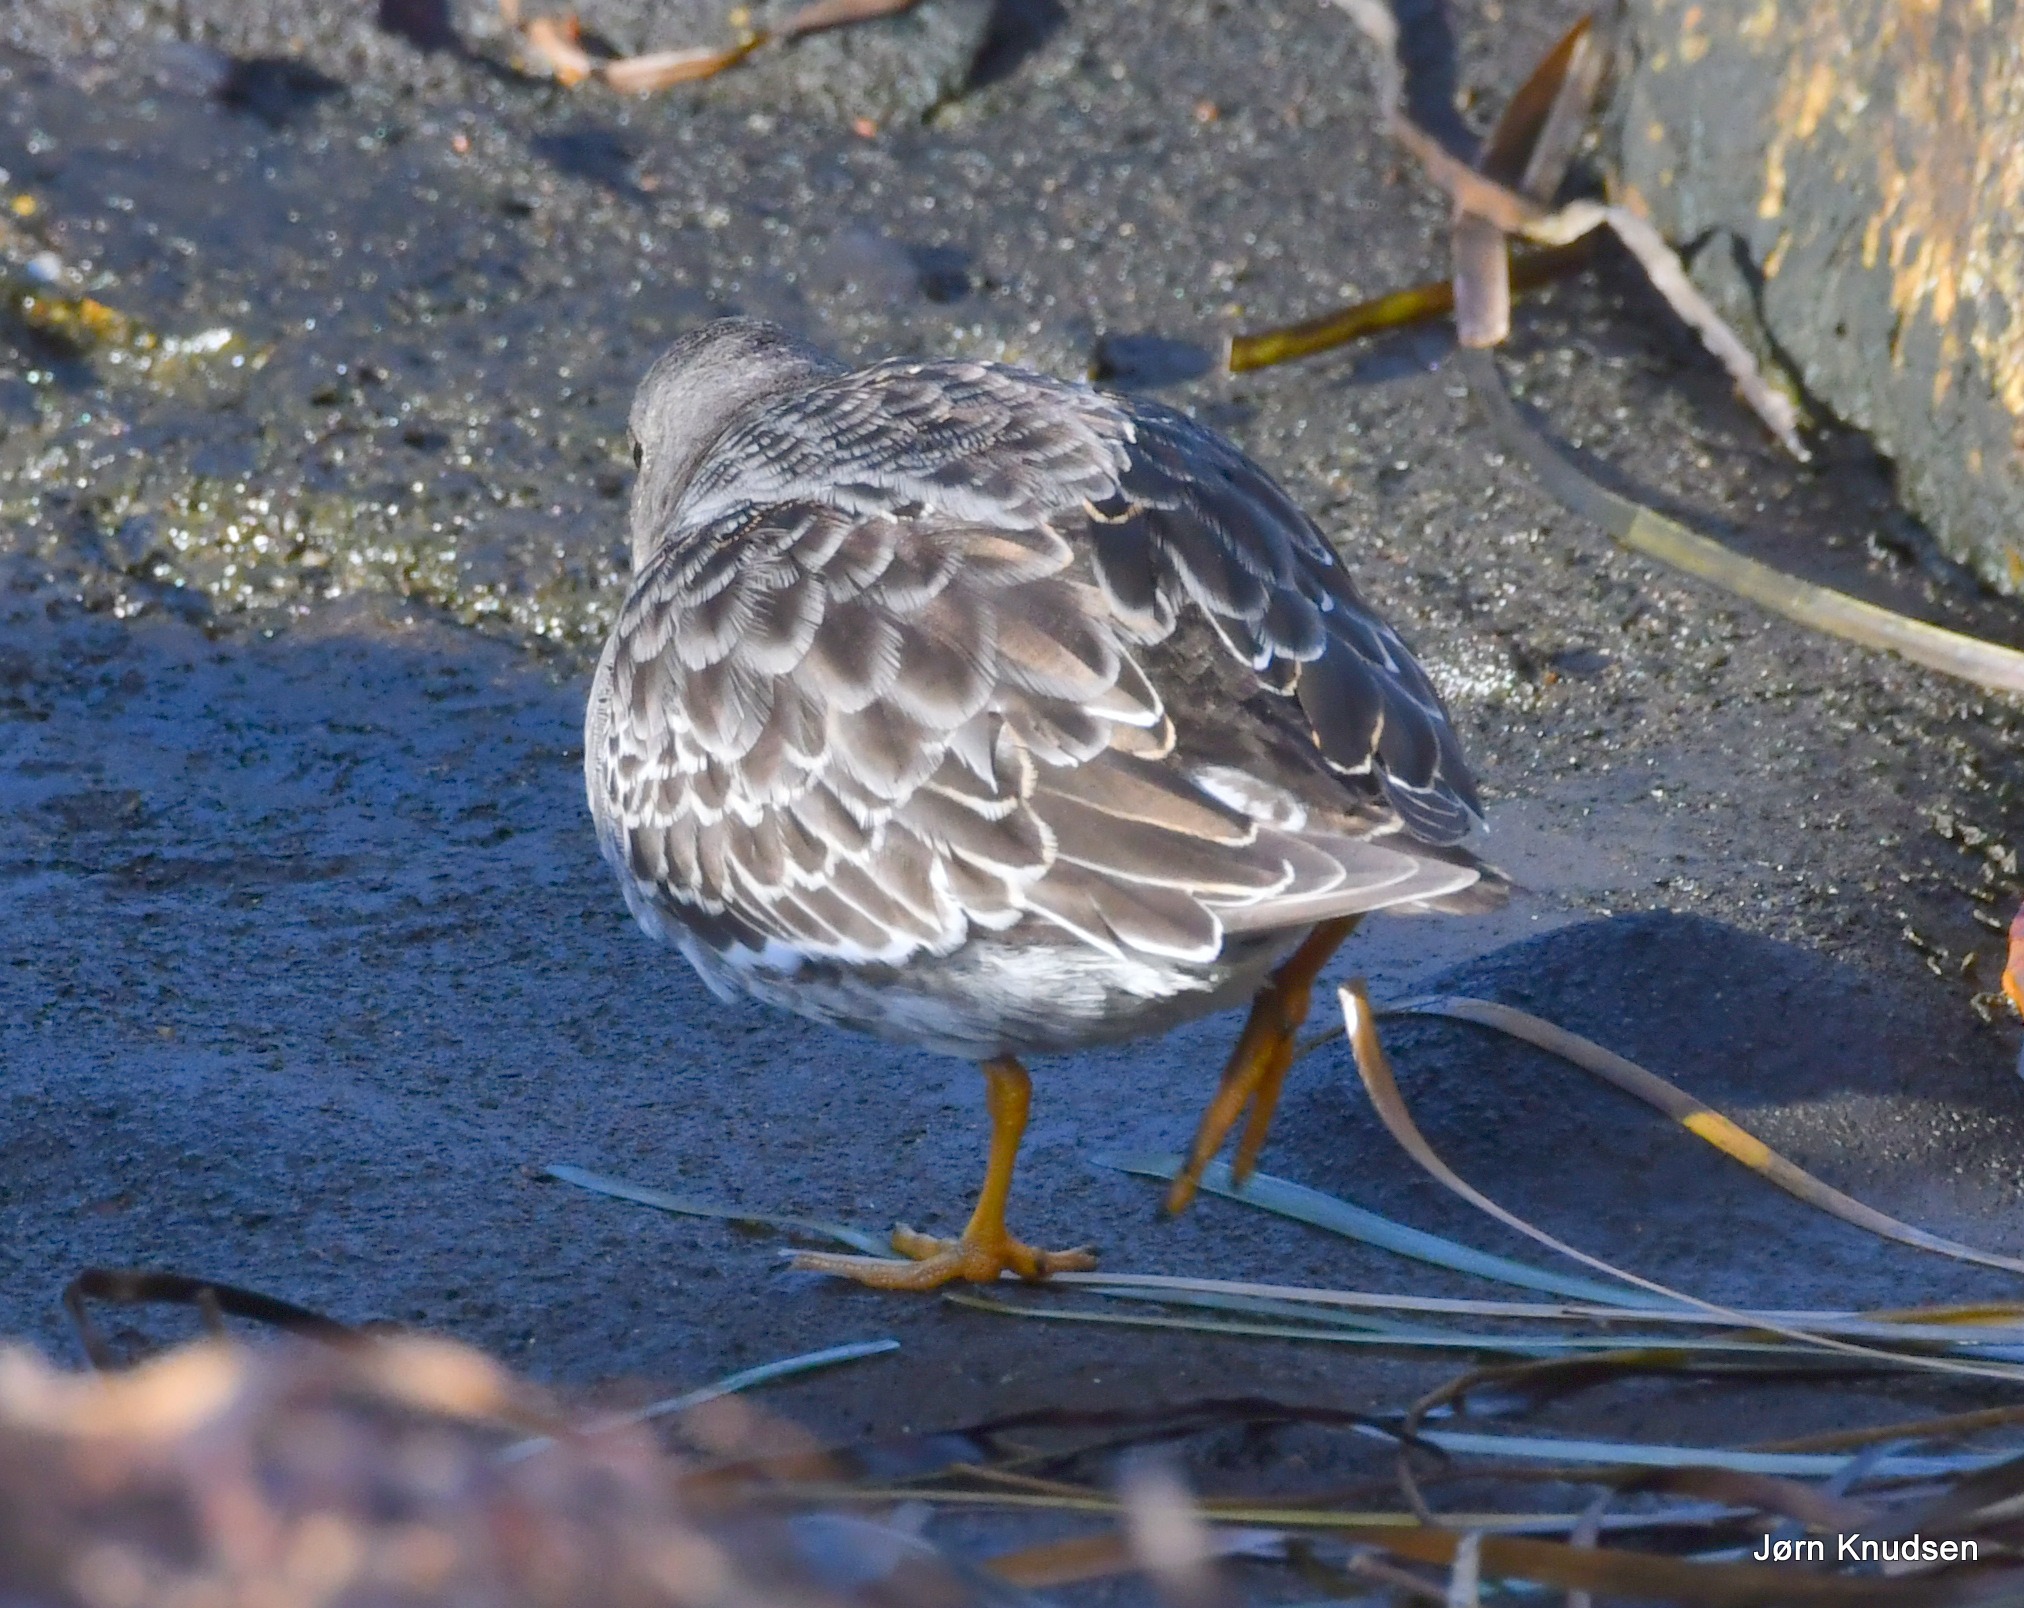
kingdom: Animalia
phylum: Chordata
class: Aves
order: Charadriiformes
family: Scolopacidae
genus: Calidris
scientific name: Calidris maritima
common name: Sortgrå ryle
